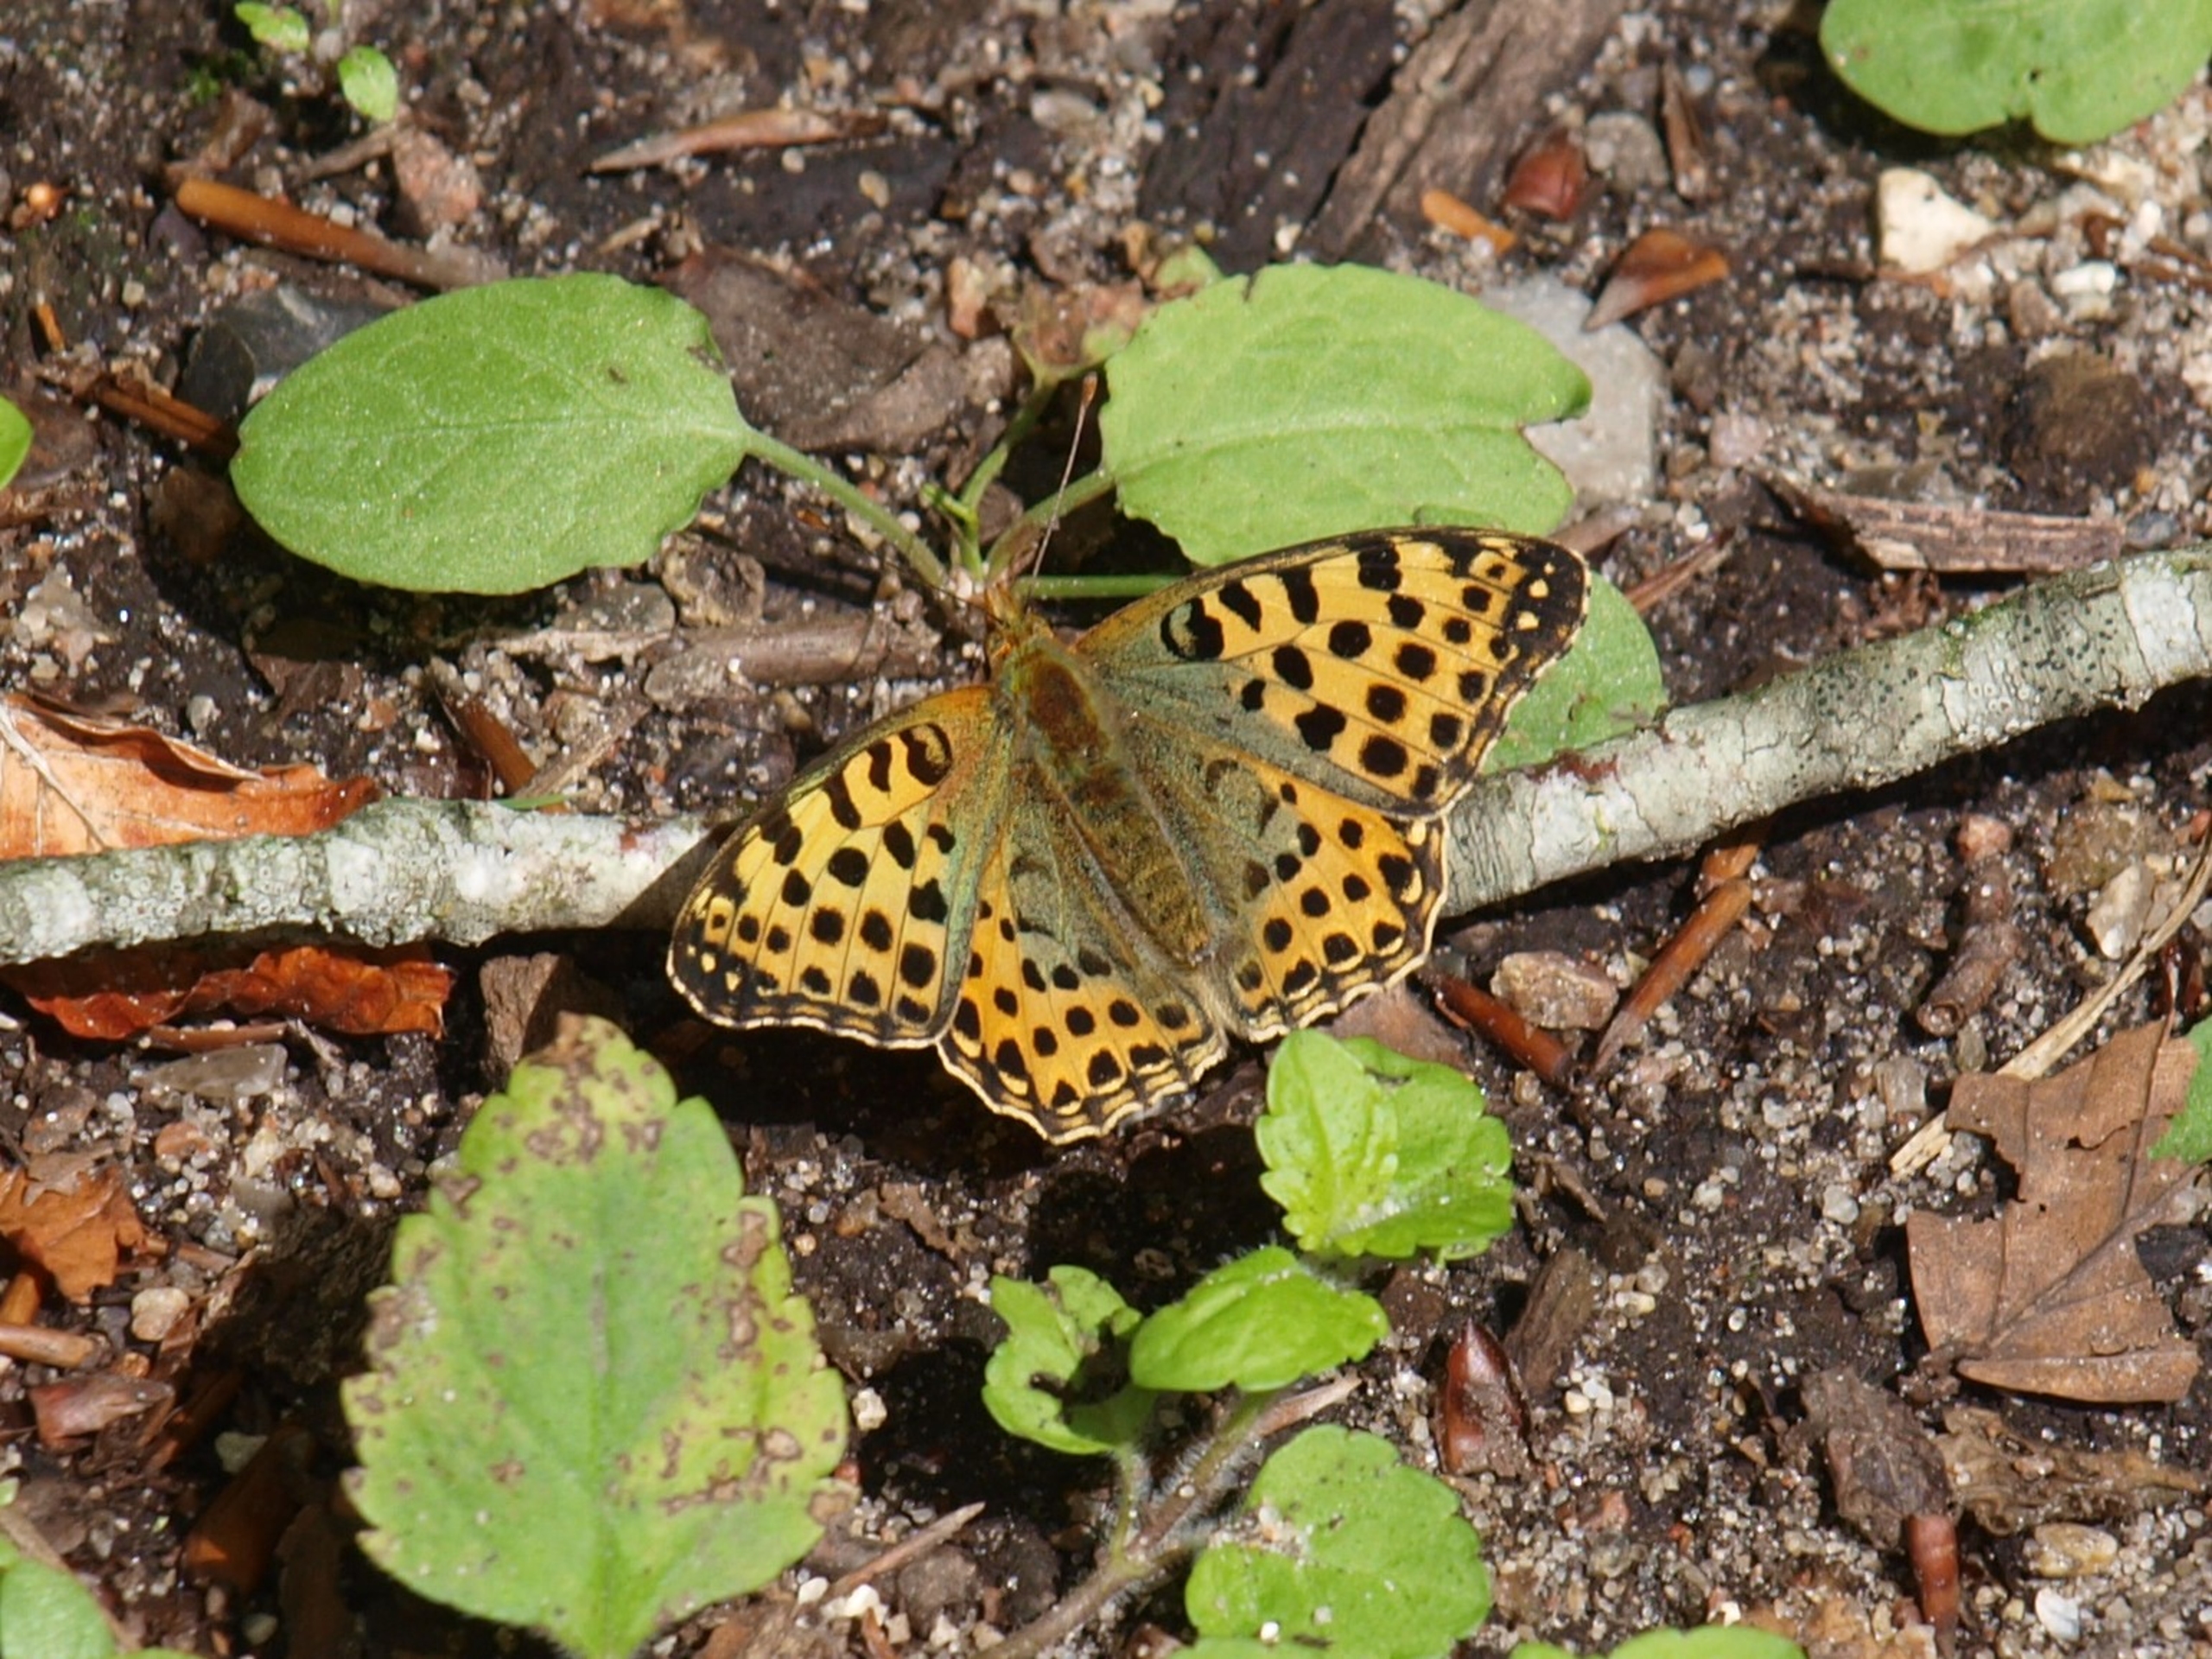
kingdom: Animalia
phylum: Arthropoda
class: Insecta
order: Lepidoptera
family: Nymphalidae
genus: Issoria
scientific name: Issoria lathonia
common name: Storplettet perlemorsommerfugl
